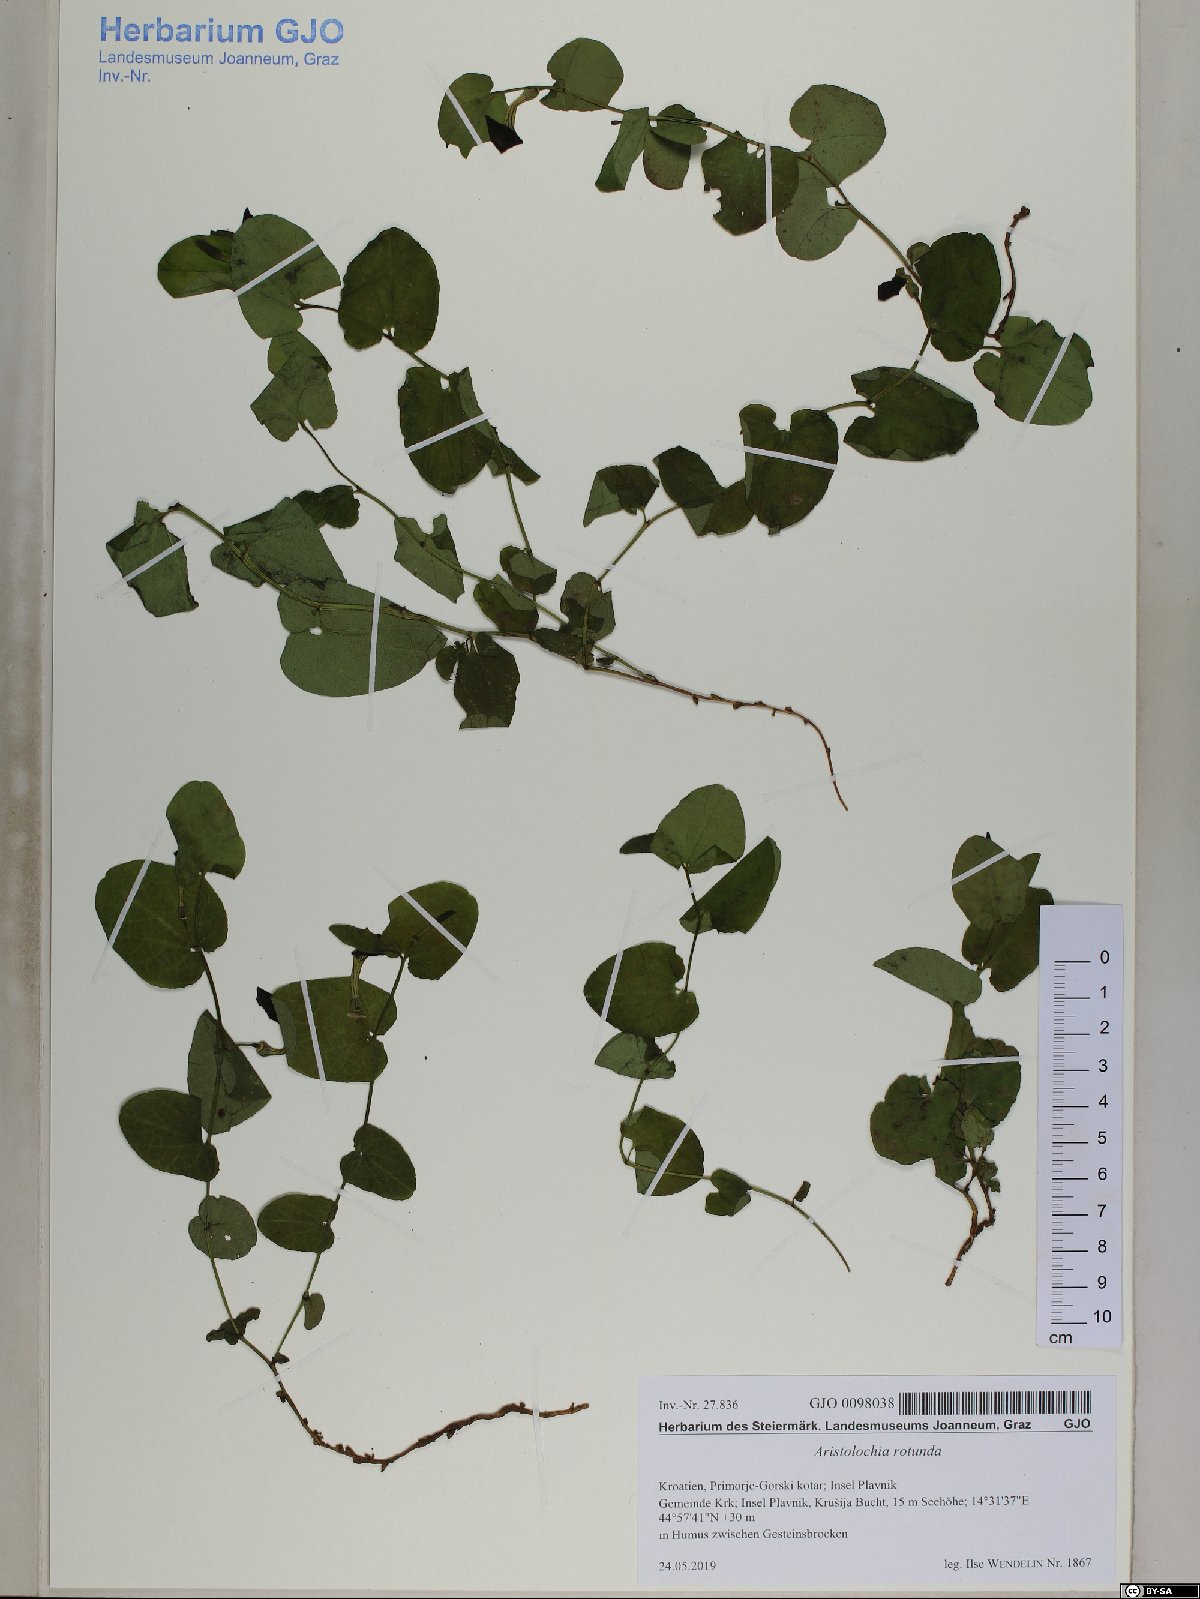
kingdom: Plantae
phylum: Tracheophyta
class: Magnoliopsida
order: Piperales
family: Aristolochiaceae
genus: Aristolochia
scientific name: Aristolochia rotunda
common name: Smearwort
